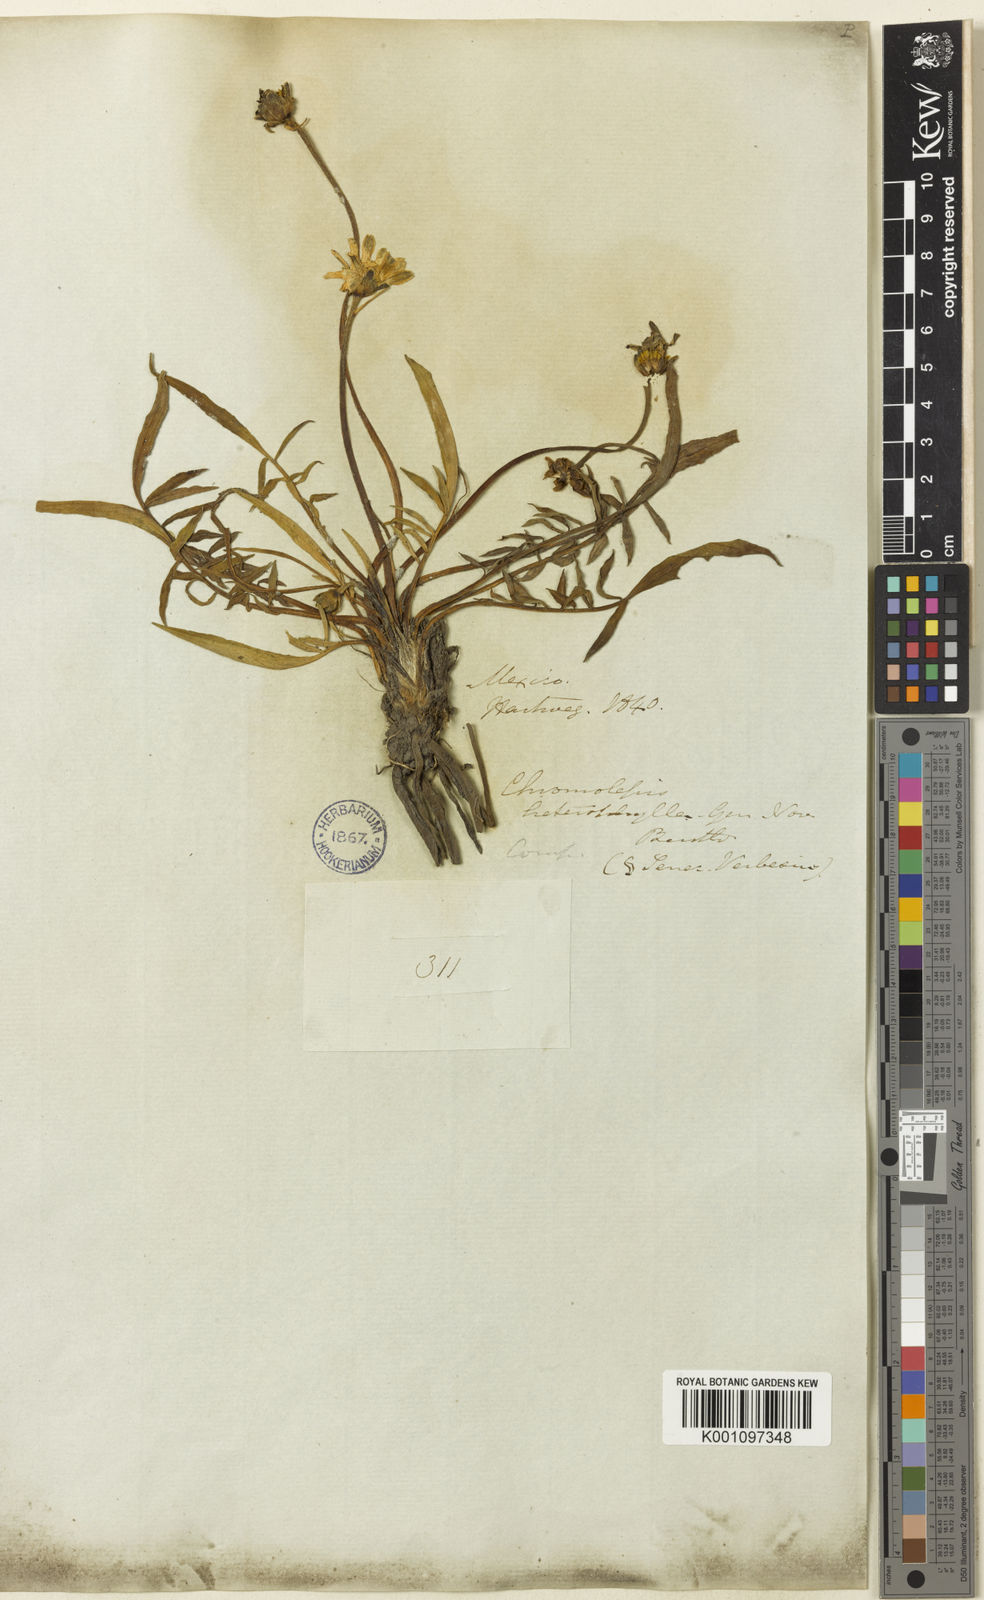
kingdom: Plantae
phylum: Tracheophyta
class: Magnoliopsida
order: Asterales
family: Asteraceae
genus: Chromolepis
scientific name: Chromolepis heterophylla
